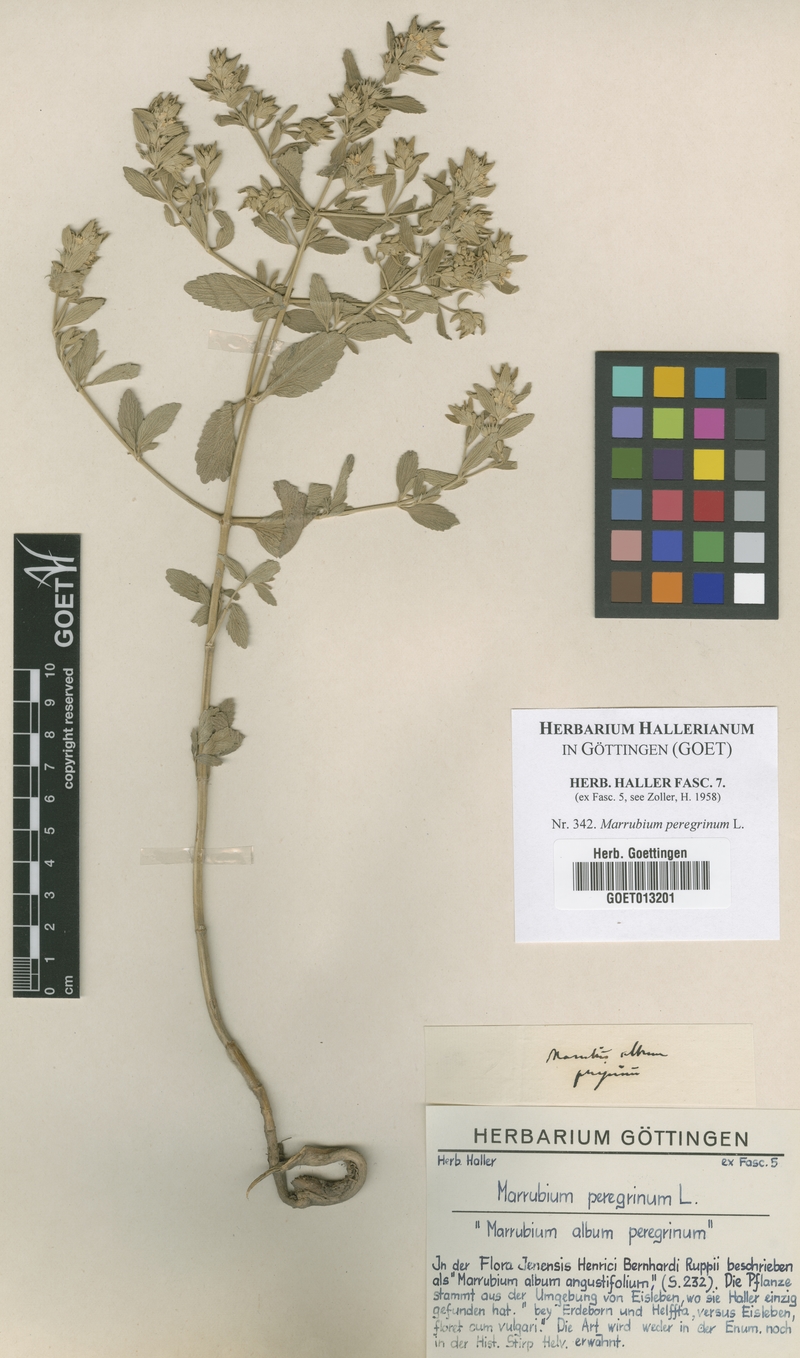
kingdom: Plantae
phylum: Tracheophyta
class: Magnoliopsida
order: Lamiales
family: Lamiaceae
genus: Marrubium
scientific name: Marrubium peregrinum
